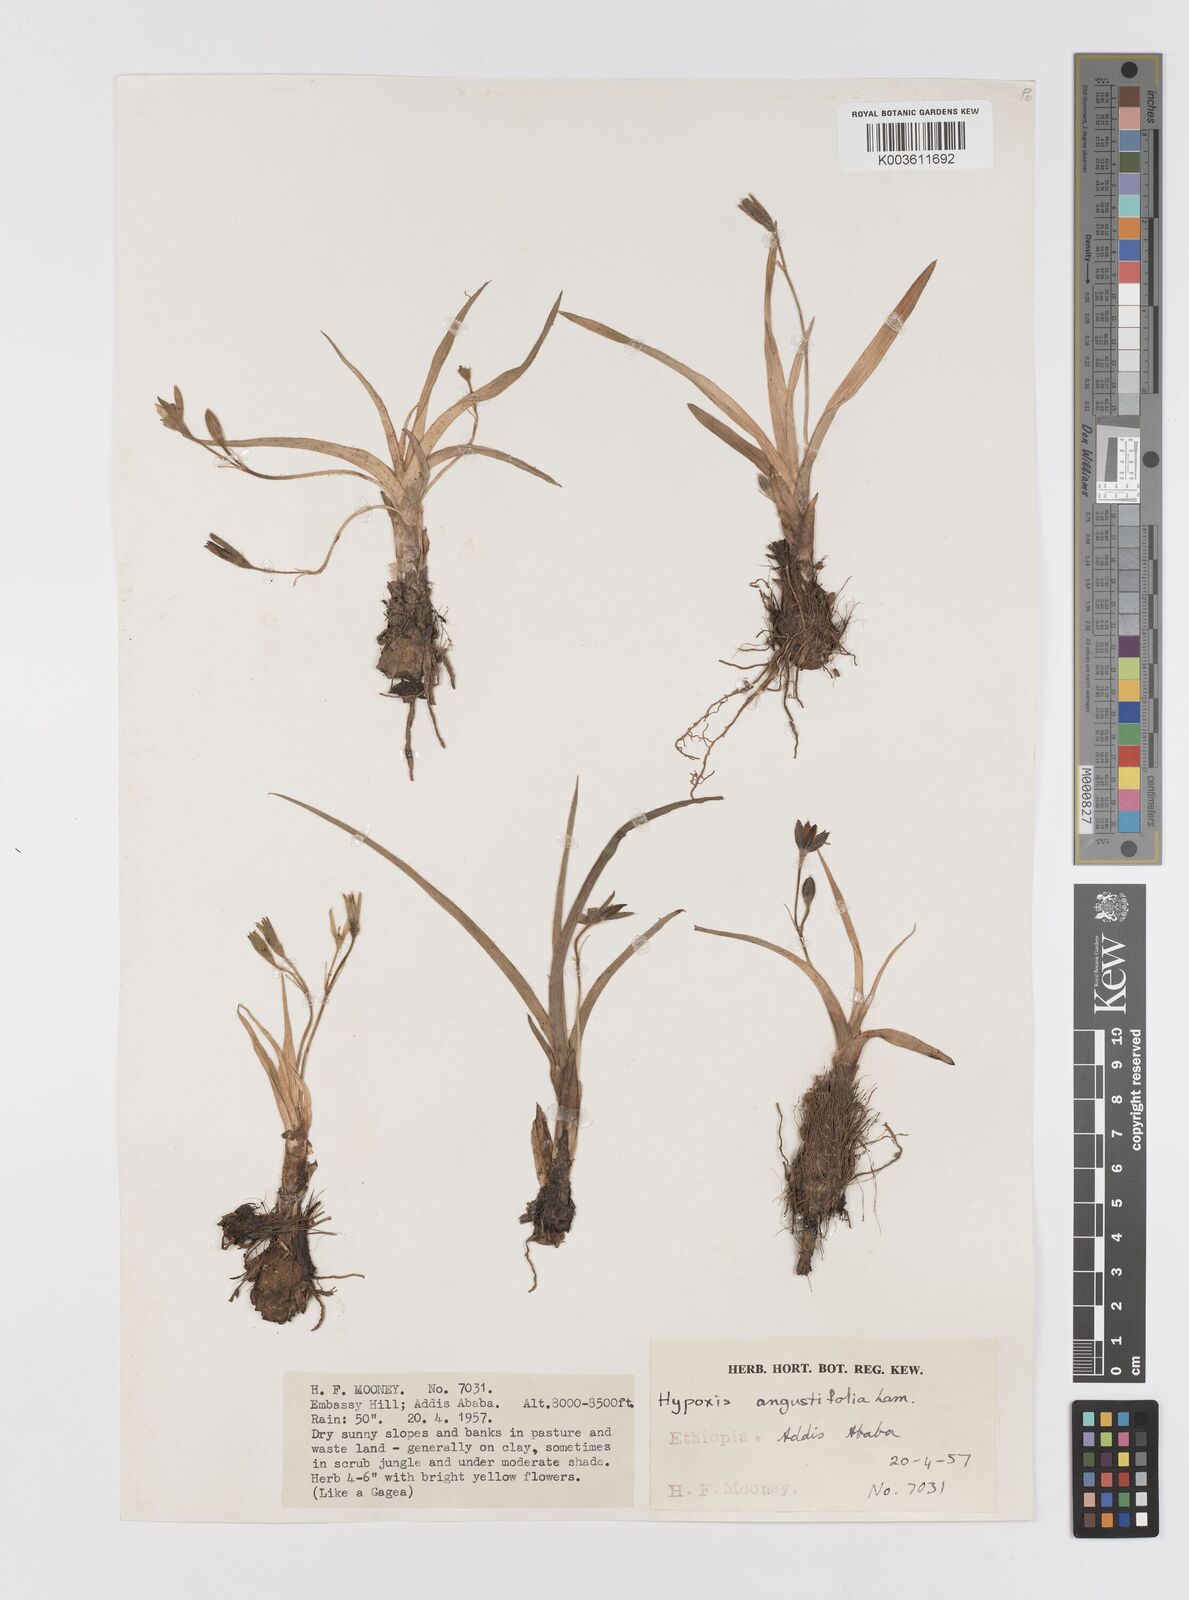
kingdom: Plantae
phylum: Tracheophyta
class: Liliopsida
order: Asparagales
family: Hypoxidaceae
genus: Hypoxis
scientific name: Hypoxis
